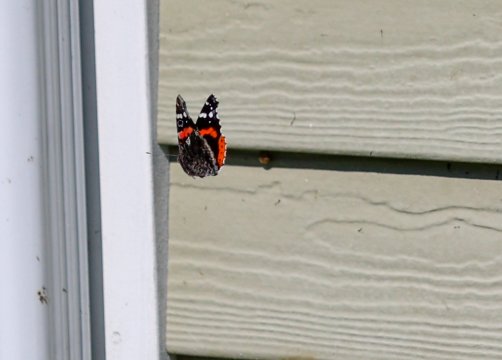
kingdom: Animalia
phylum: Arthropoda
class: Insecta
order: Lepidoptera
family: Nymphalidae
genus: Vanessa
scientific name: Vanessa atalanta
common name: Red Admiral
